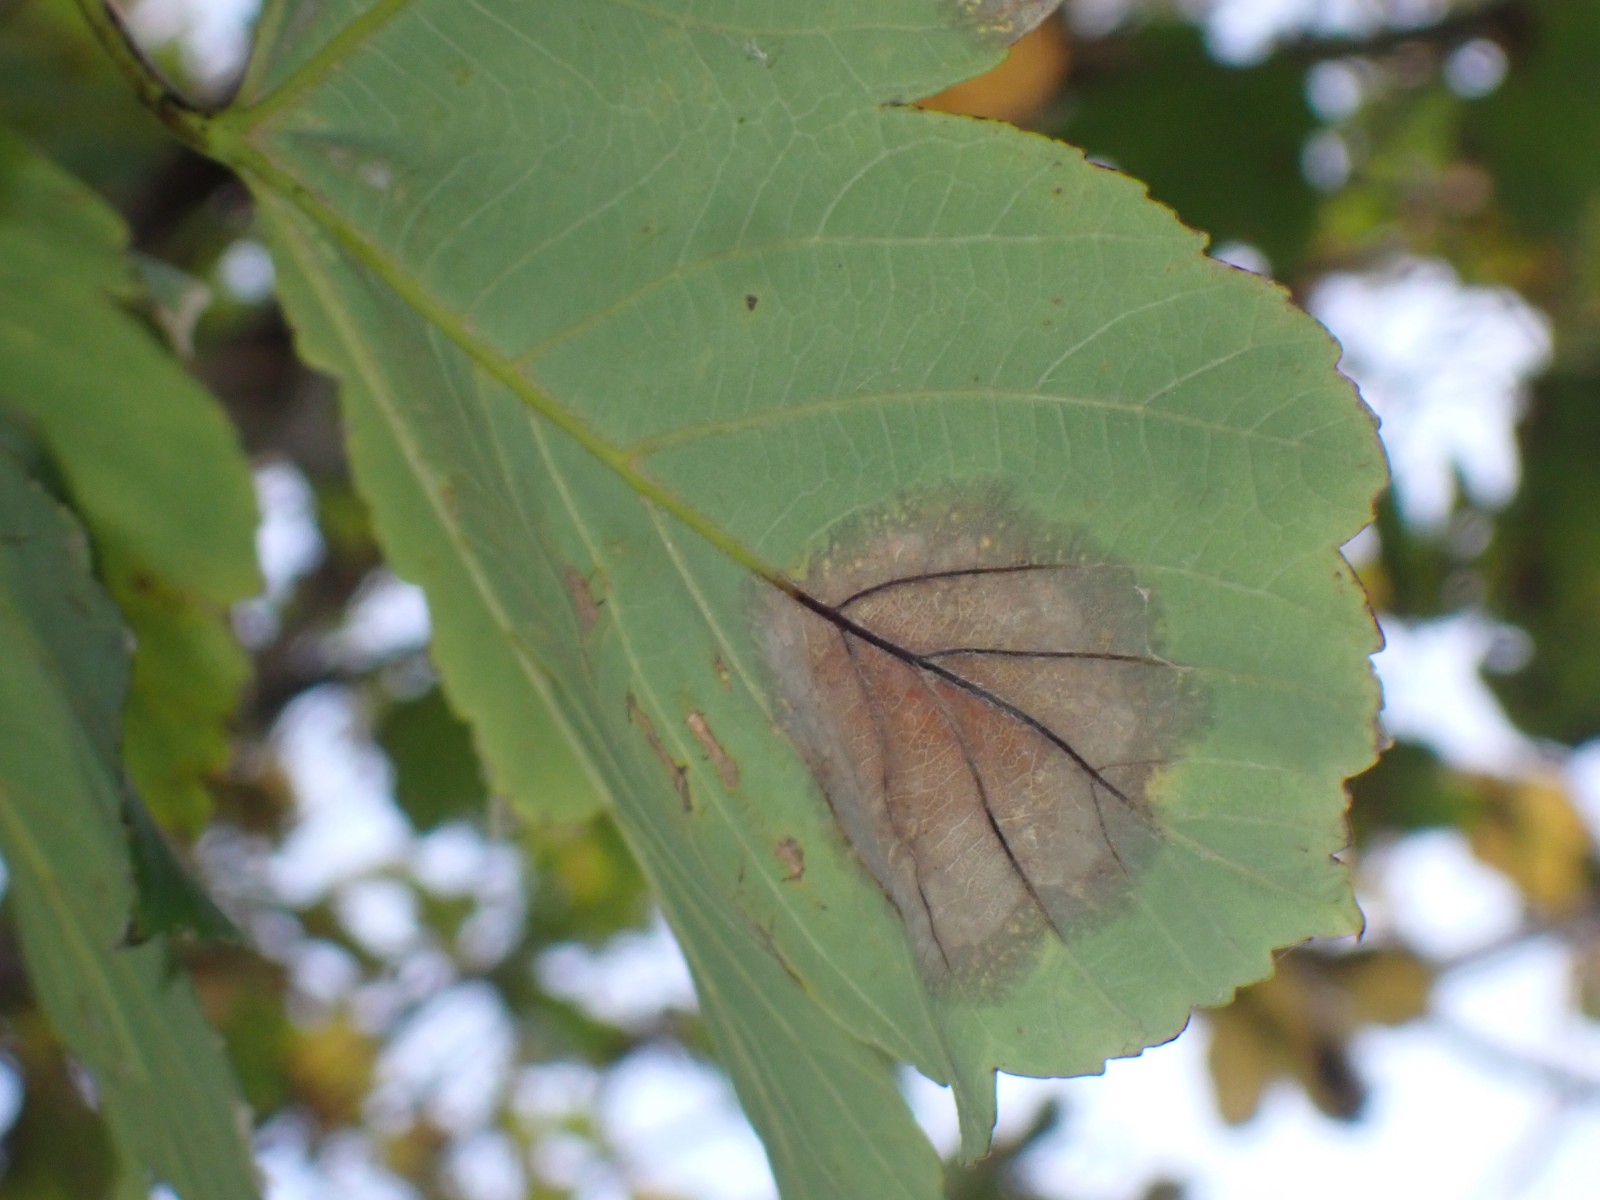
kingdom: Fungi
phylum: Ascomycota
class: Sordariomycetes
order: Diaporthales
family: Gnomoniaceae
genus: Pleuroceras
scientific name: Pleuroceras pseudoplatani
